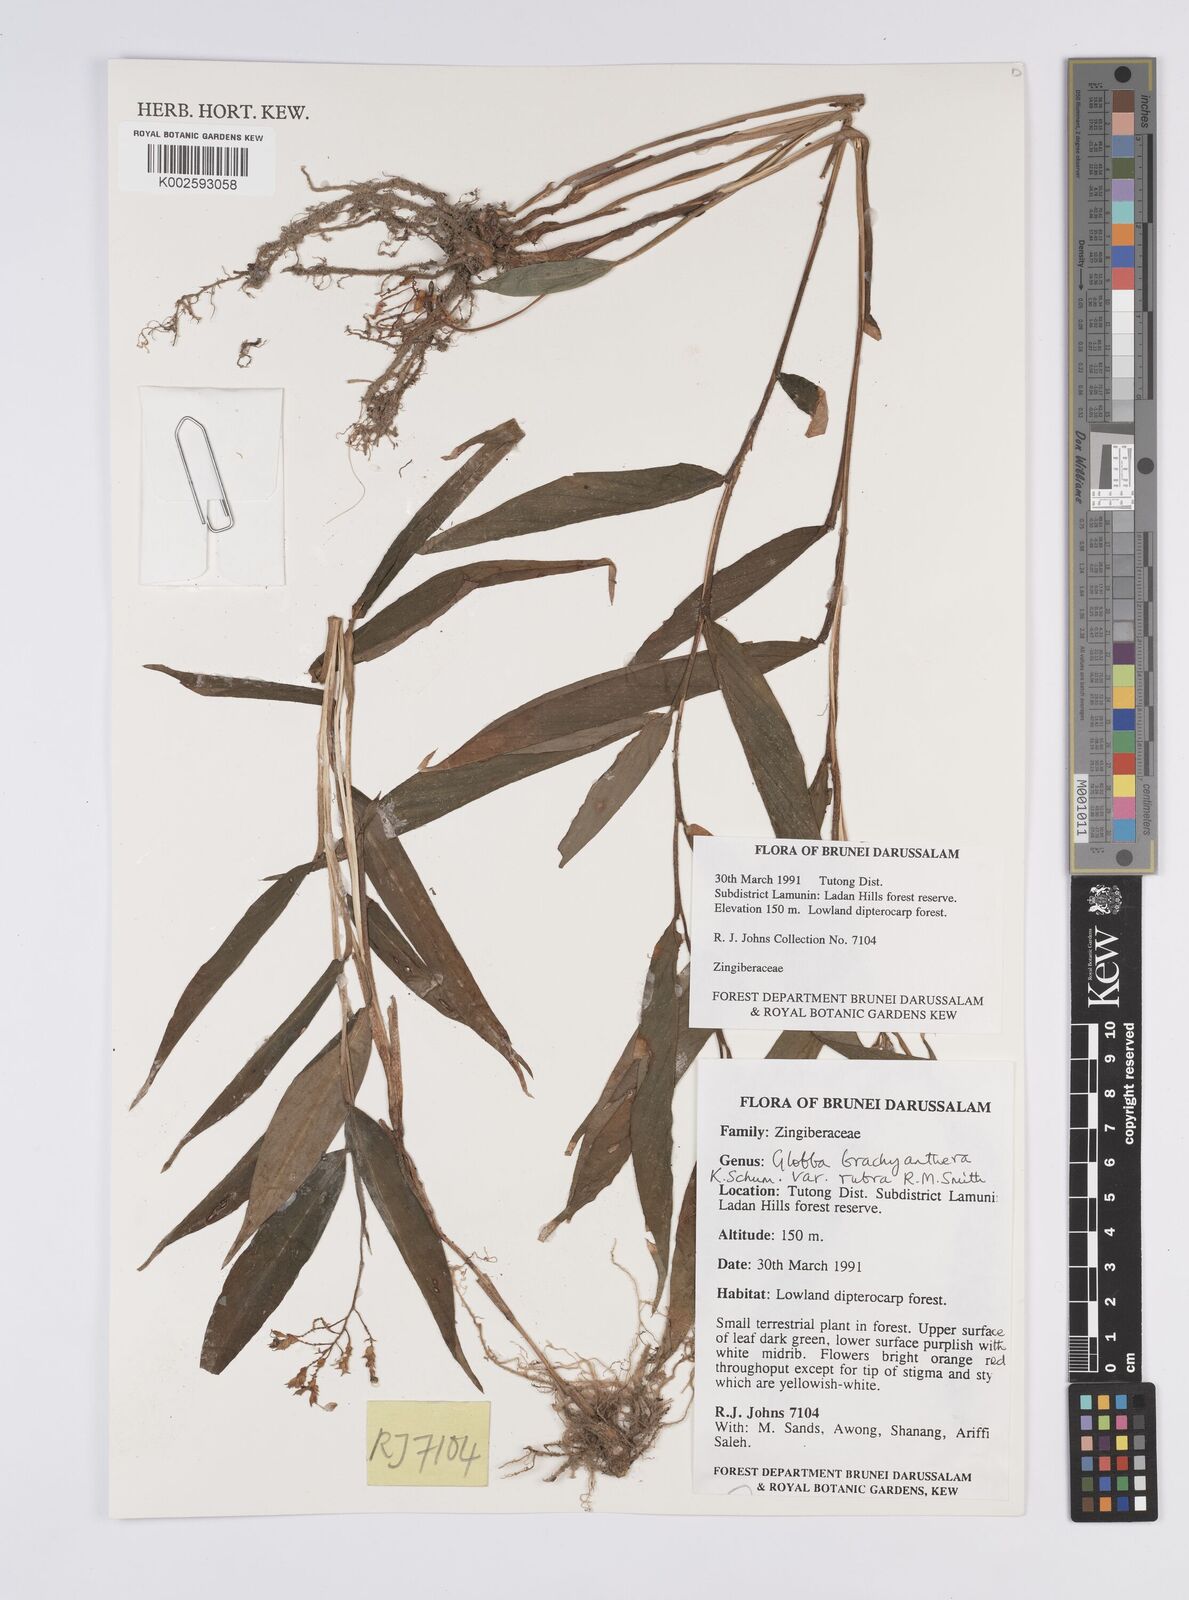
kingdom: Plantae
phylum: Tracheophyta
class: Liliopsida
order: Zingiberales
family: Zingiberaceae
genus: Globba
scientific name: Globba brachyanthera
